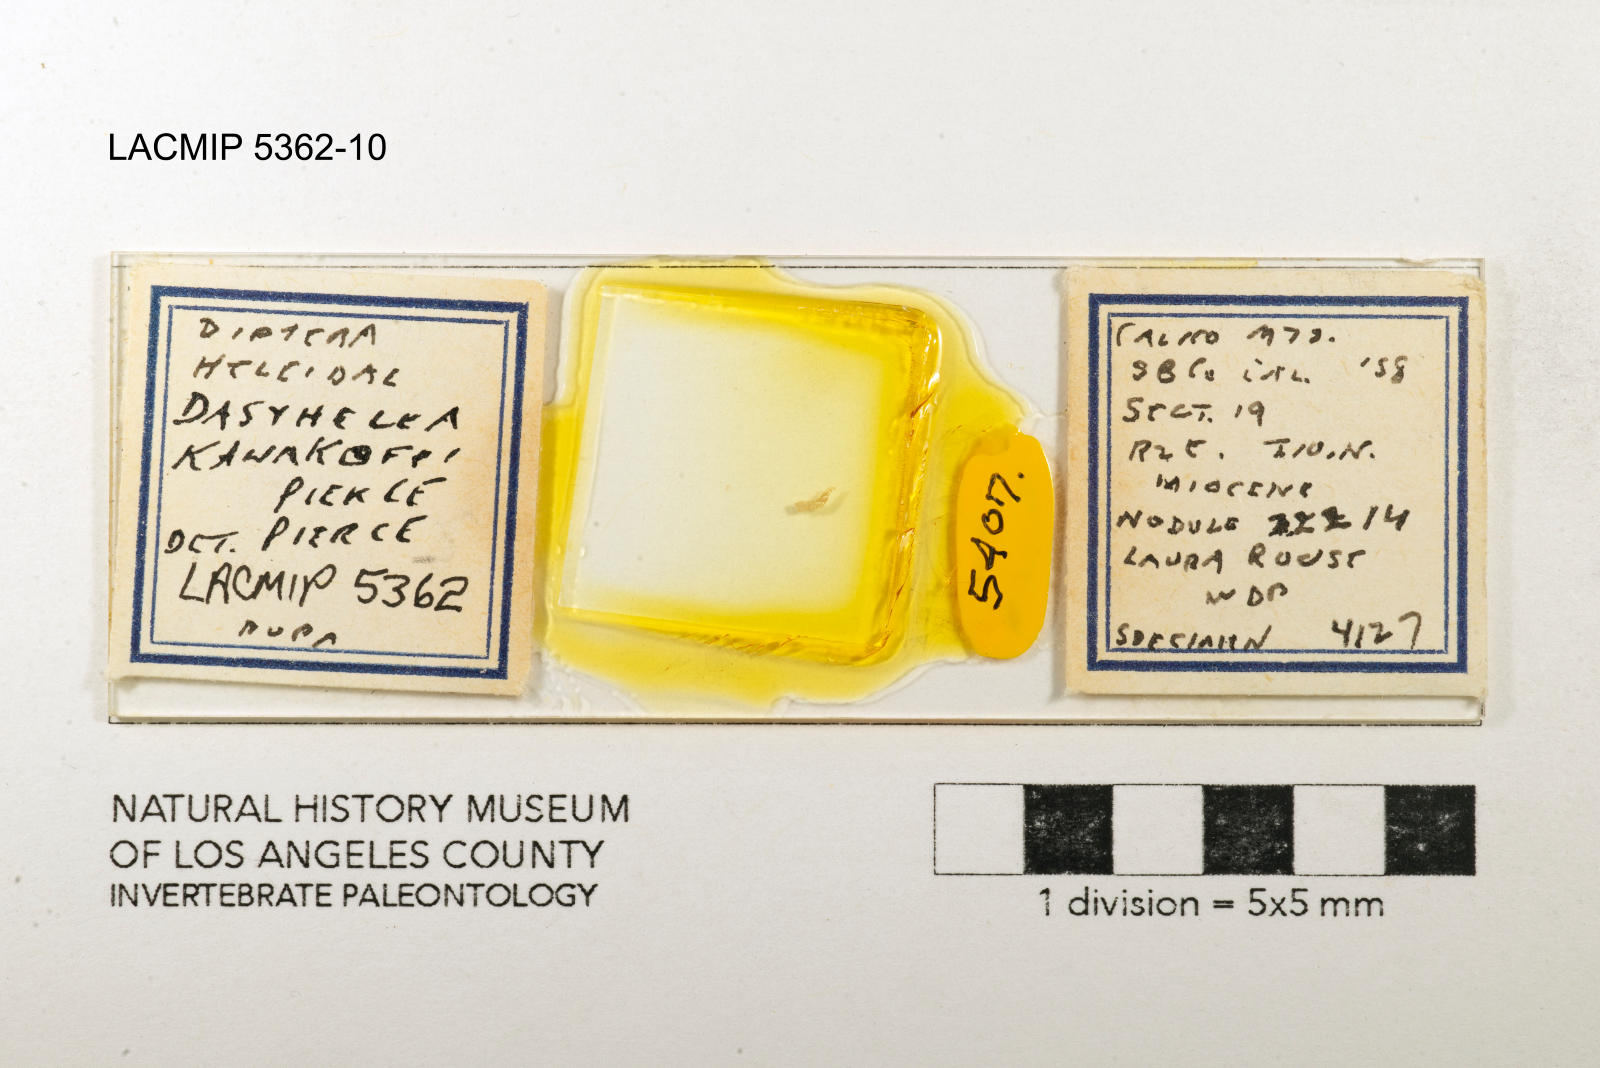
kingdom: Animalia
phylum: Arthropoda
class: Insecta
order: Diptera
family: Ceratopogonidae
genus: Dasyhelea
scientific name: Dasyhelea kanakoffi
